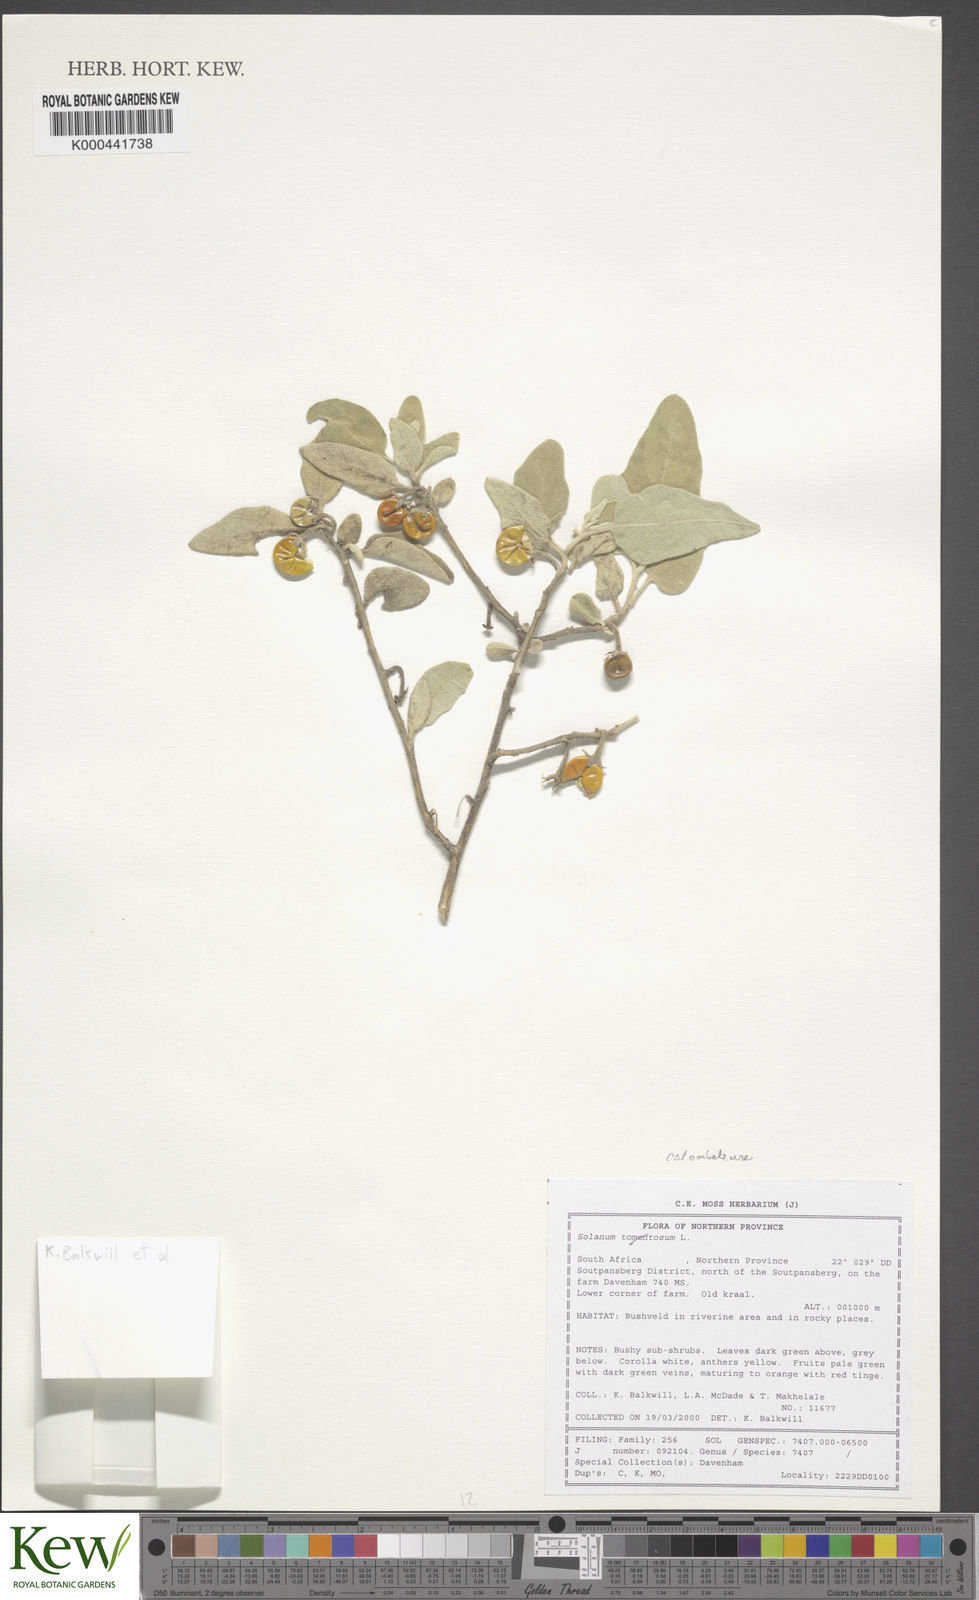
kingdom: Plantae
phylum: Tracheophyta
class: Magnoliopsida
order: Solanales
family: Solanaceae
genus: Solanum
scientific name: Solanum catombelense
